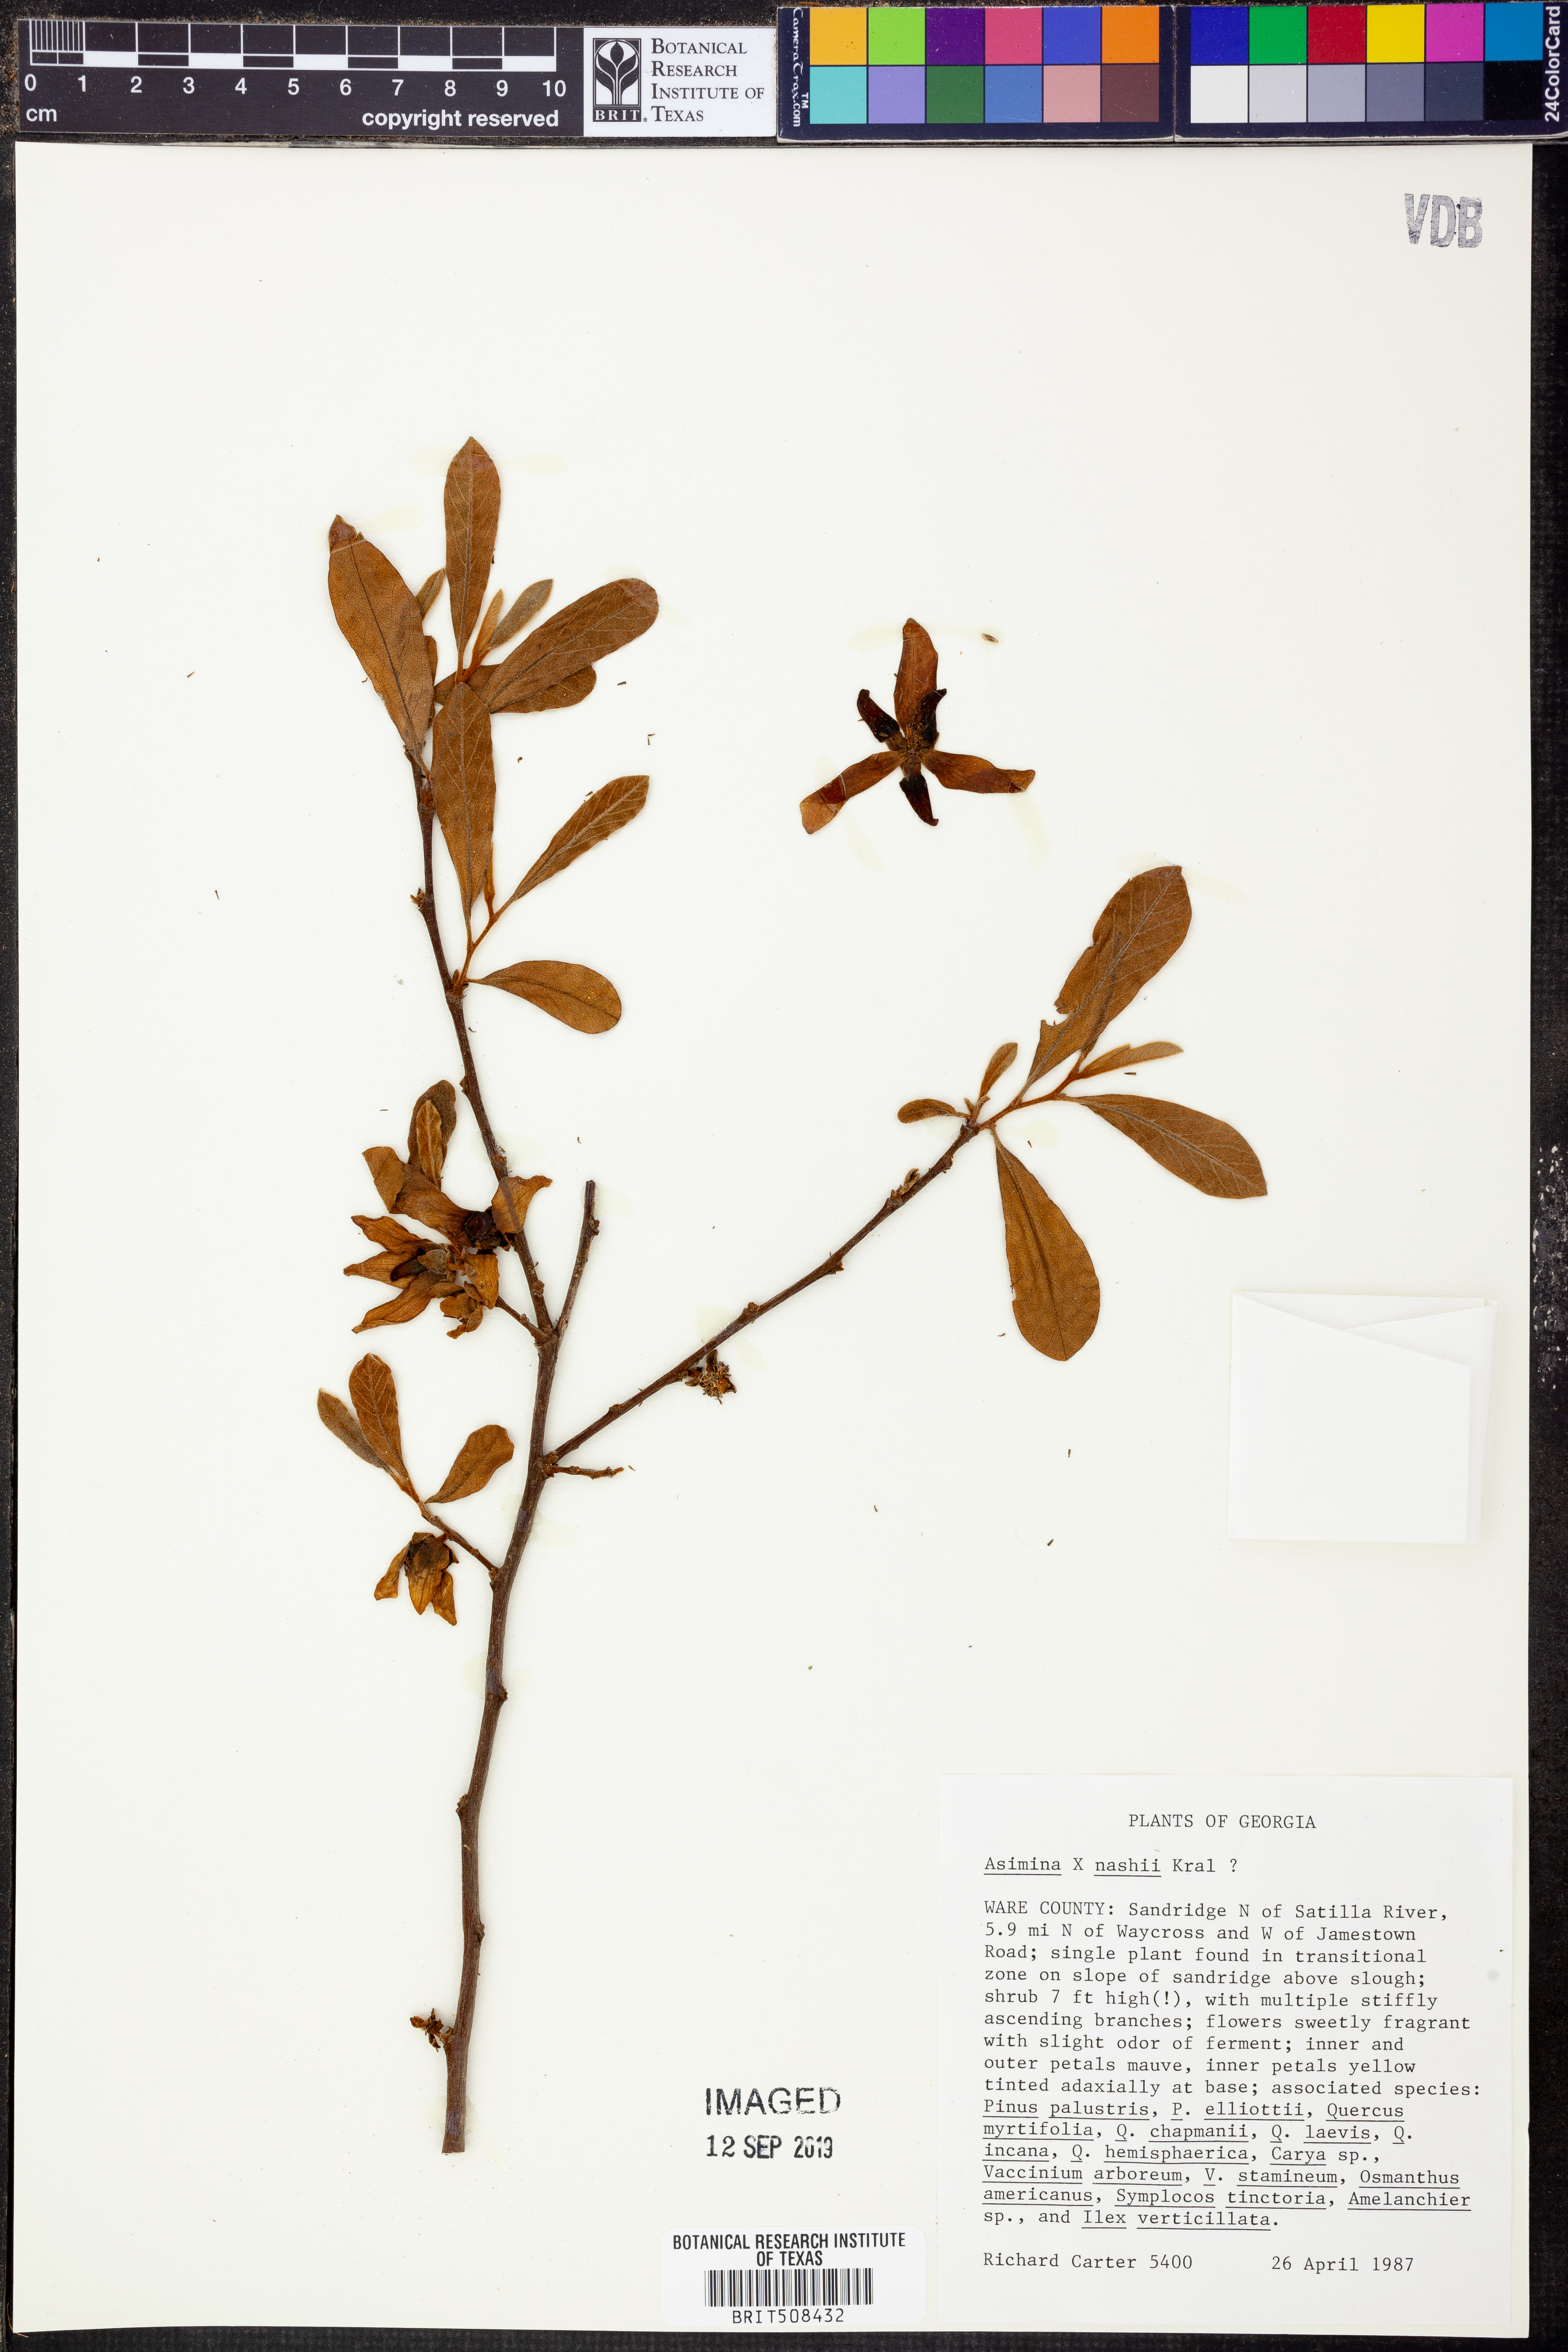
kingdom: Plantae
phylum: Tracheophyta
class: Magnoliopsida
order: Magnoliales
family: Annonaceae
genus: Asimina
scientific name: Asimina nashii
